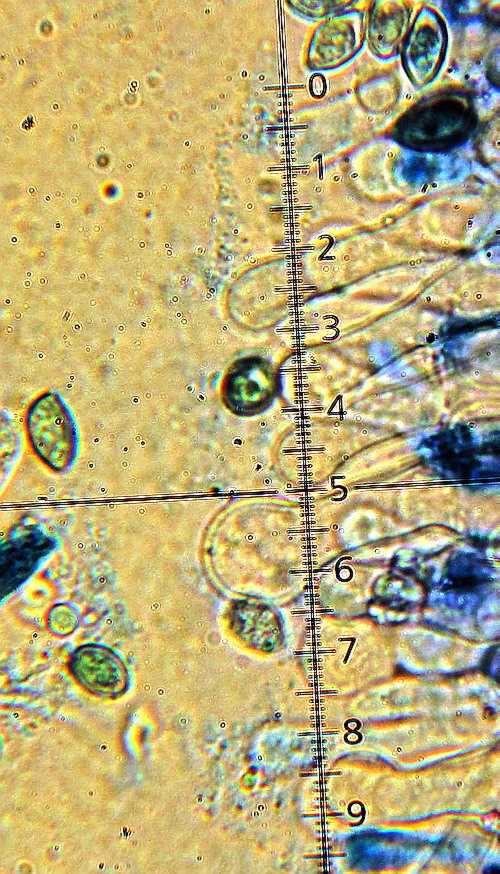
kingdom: Fungi
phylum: Basidiomycota
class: Agaricomycetes
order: Agaricales
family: Hymenogastraceae
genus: Galerina
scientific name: Galerina hypnorum
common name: mos-hjelmhat
